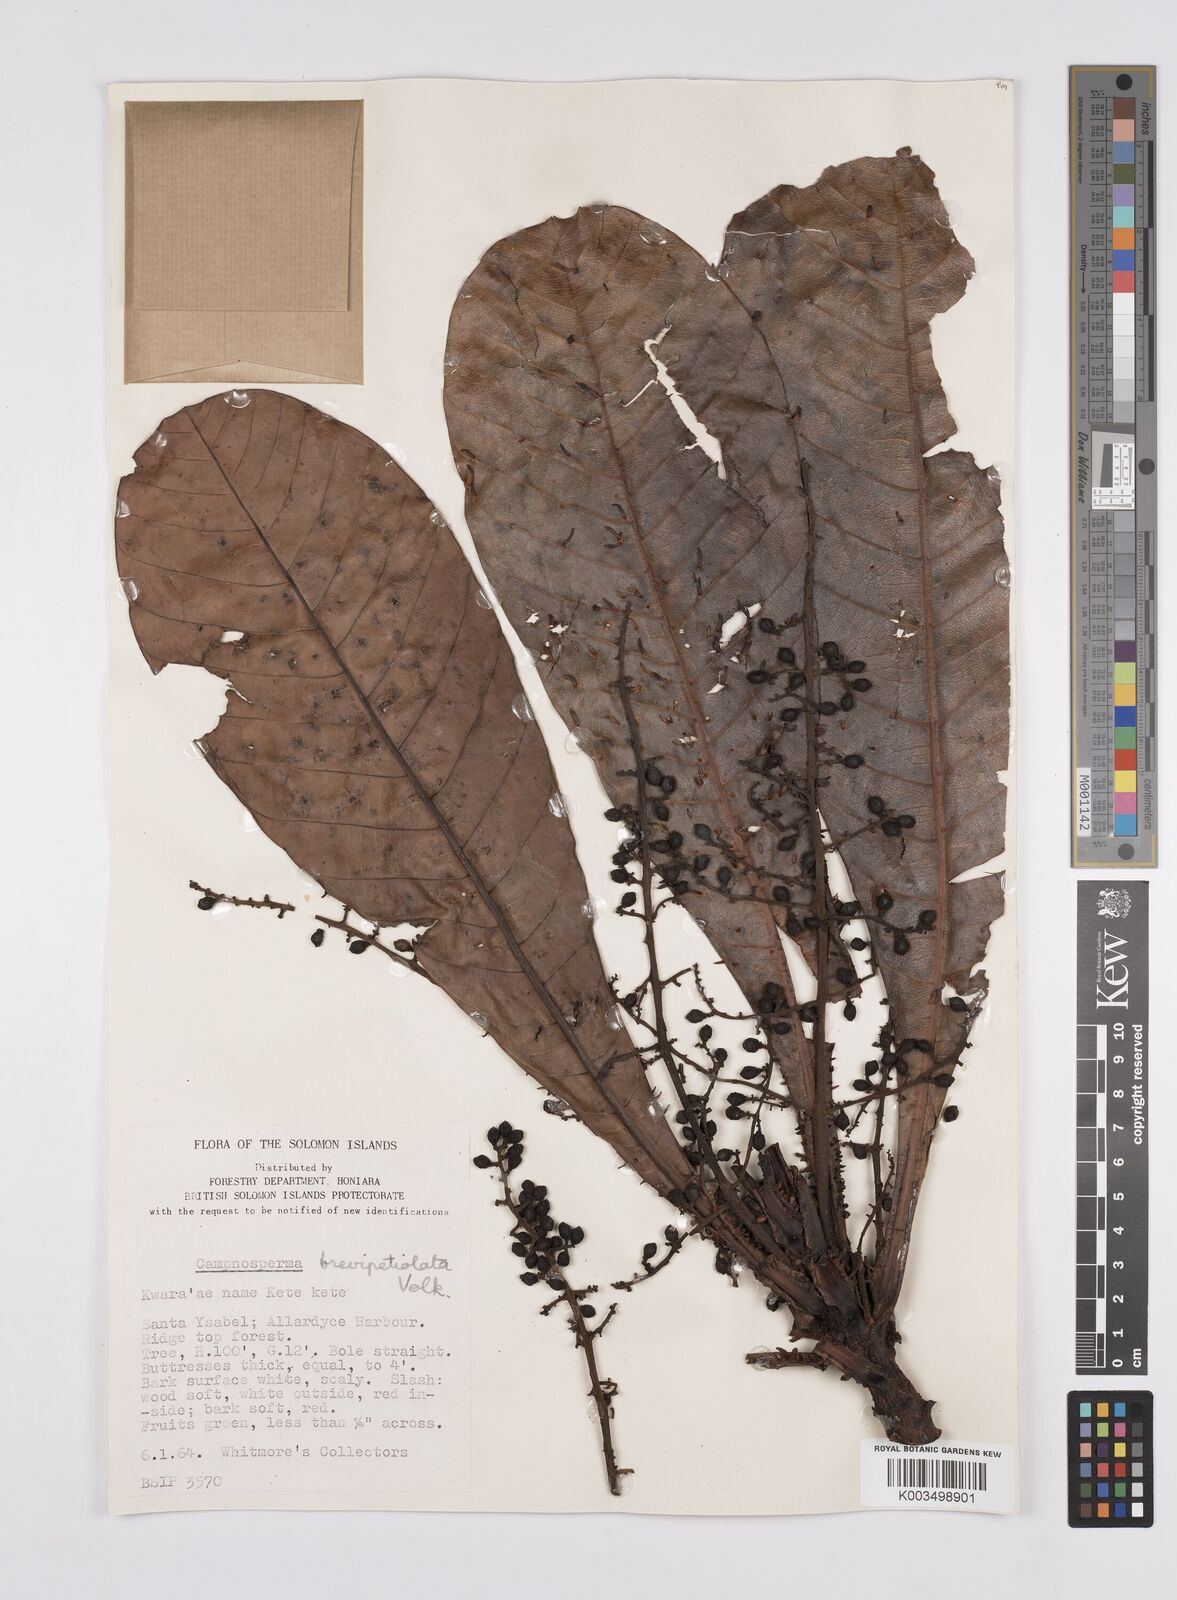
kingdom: Plantae
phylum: Tracheophyta
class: Magnoliopsida
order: Sapindales
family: Anacardiaceae
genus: Campnosperma
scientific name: Campnosperma brevipetiolatum
